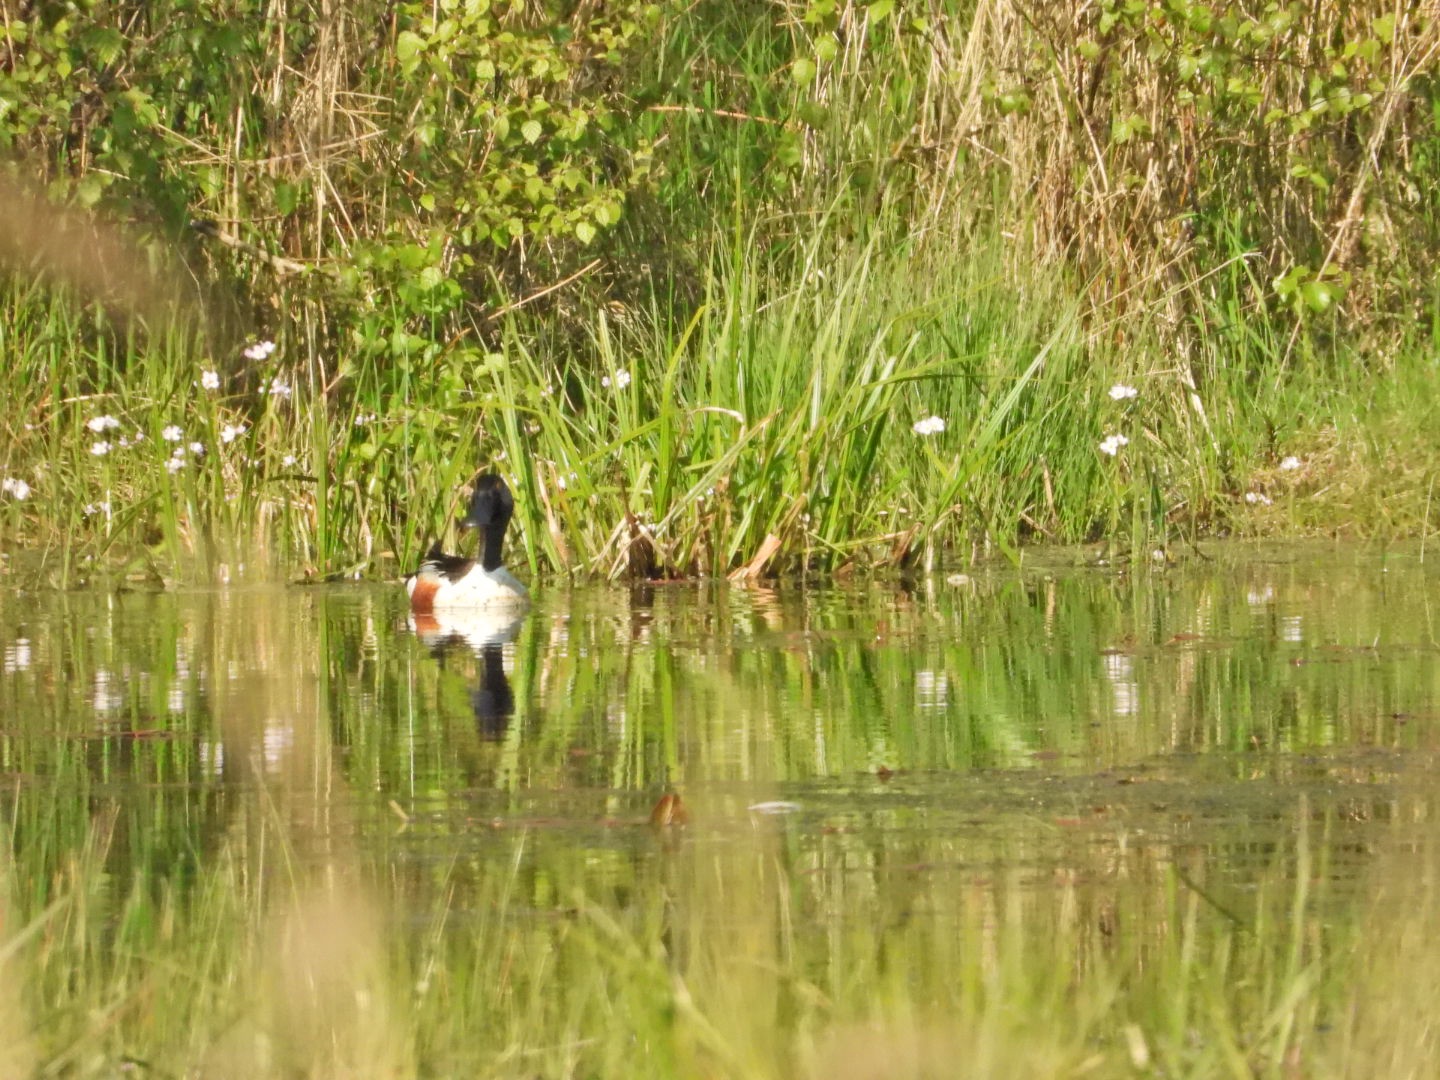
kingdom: Animalia
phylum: Chordata
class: Aves
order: Anseriformes
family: Anatidae
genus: Spatula
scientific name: Spatula clypeata
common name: Skeand
